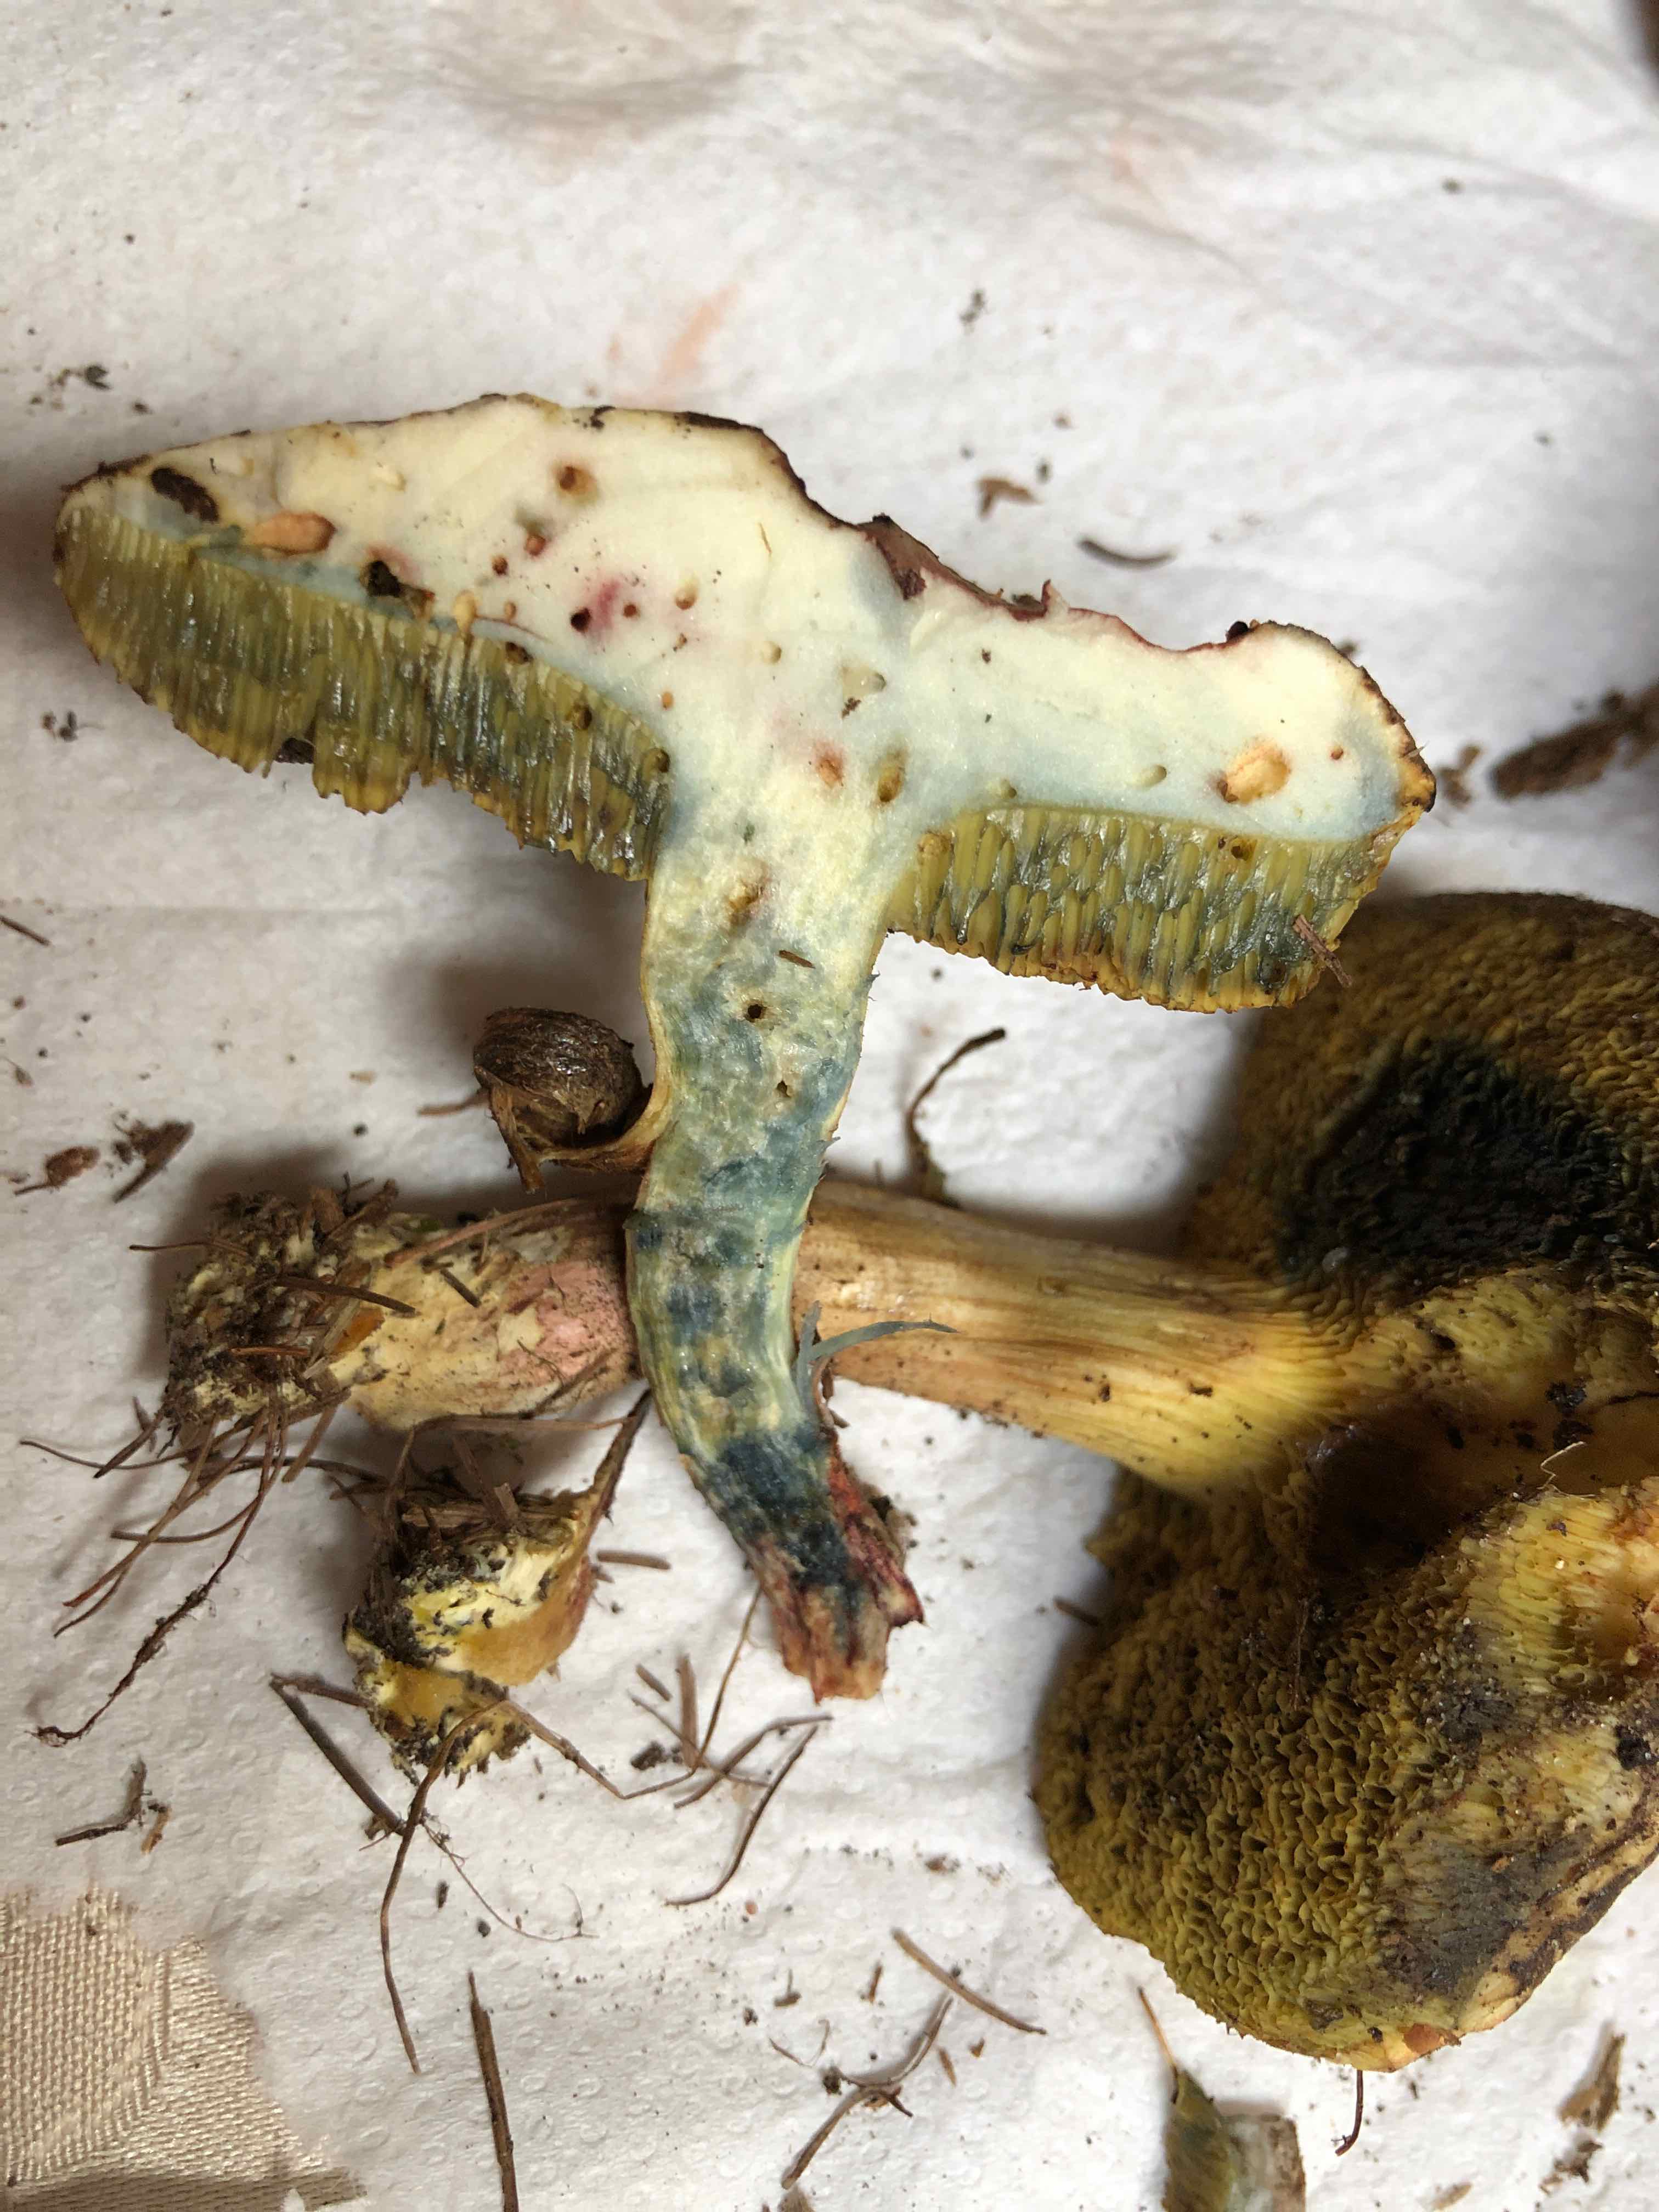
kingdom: Fungi
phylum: Basidiomycota
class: Agaricomycetes
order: Boletales
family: Boletaceae
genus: Xerocomellus
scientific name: Xerocomellus cisalpinus
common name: finsprukken rørhat
